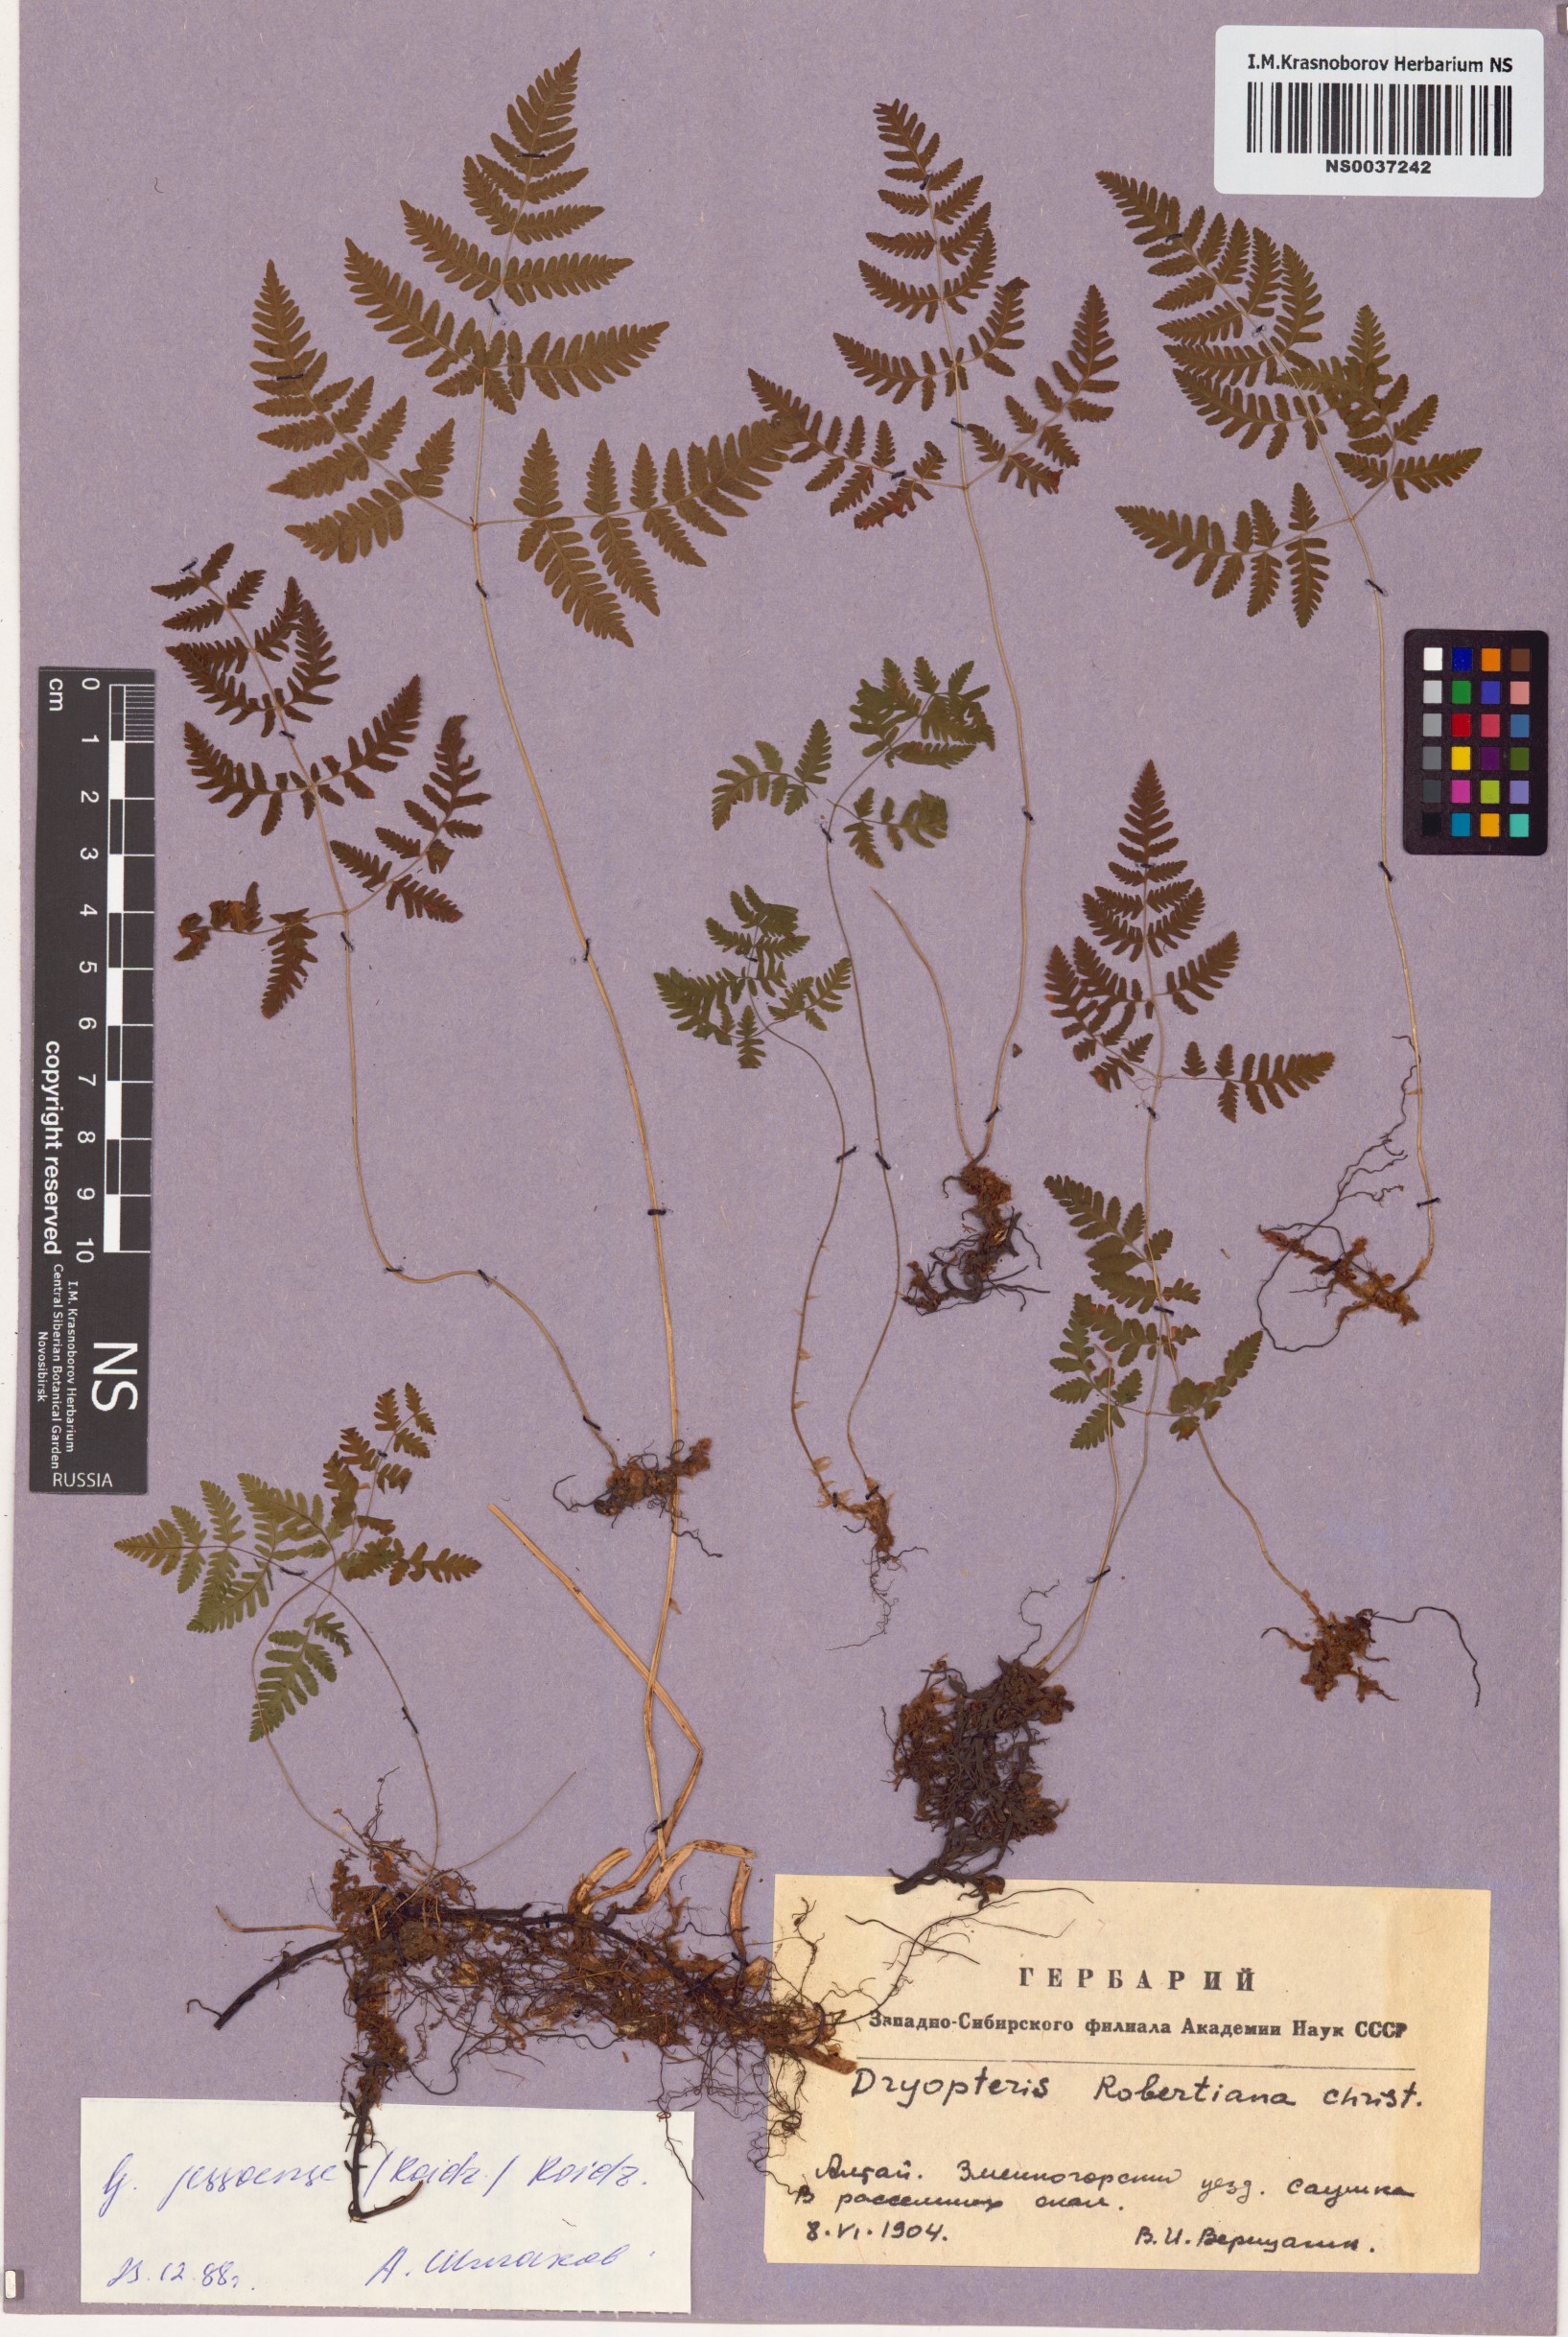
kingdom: Plantae
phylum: Tracheophyta
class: Polypodiopsida
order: Polypodiales
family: Cystopteridaceae
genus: Gymnocarpium
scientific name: Gymnocarpium jessoense
